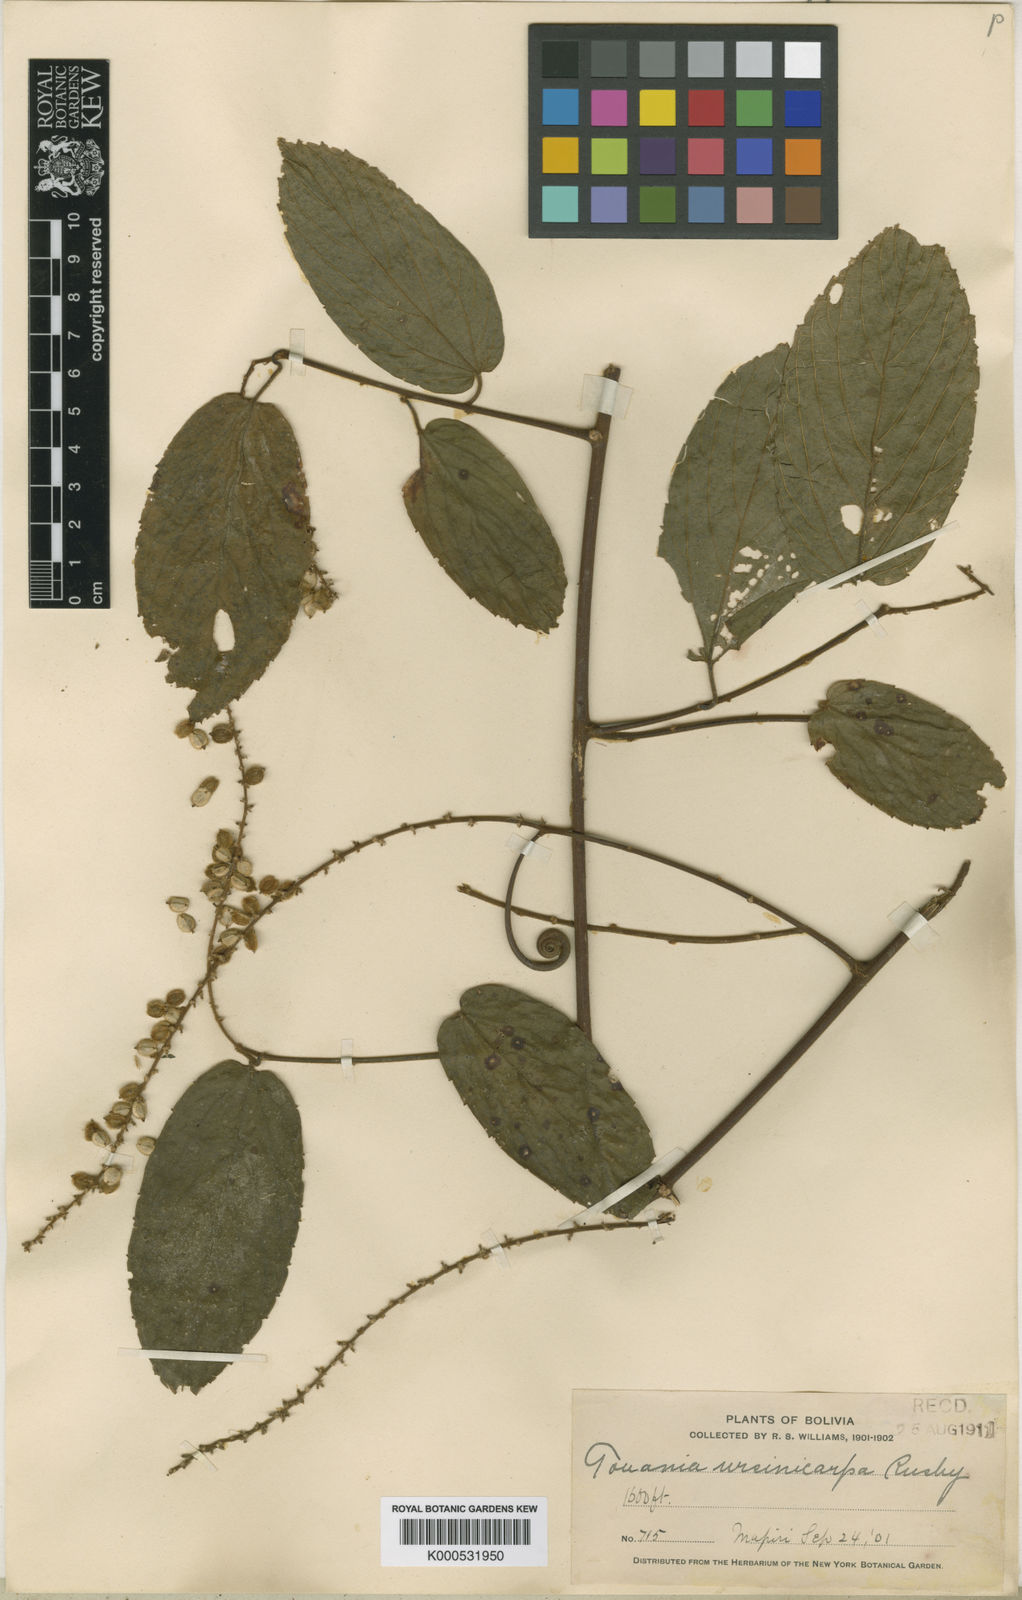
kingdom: Plantae
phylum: Tracheophyta
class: Magnoliopsida
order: Rosales
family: Rhamnaceae
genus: Gouania
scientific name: Gouania polygama
